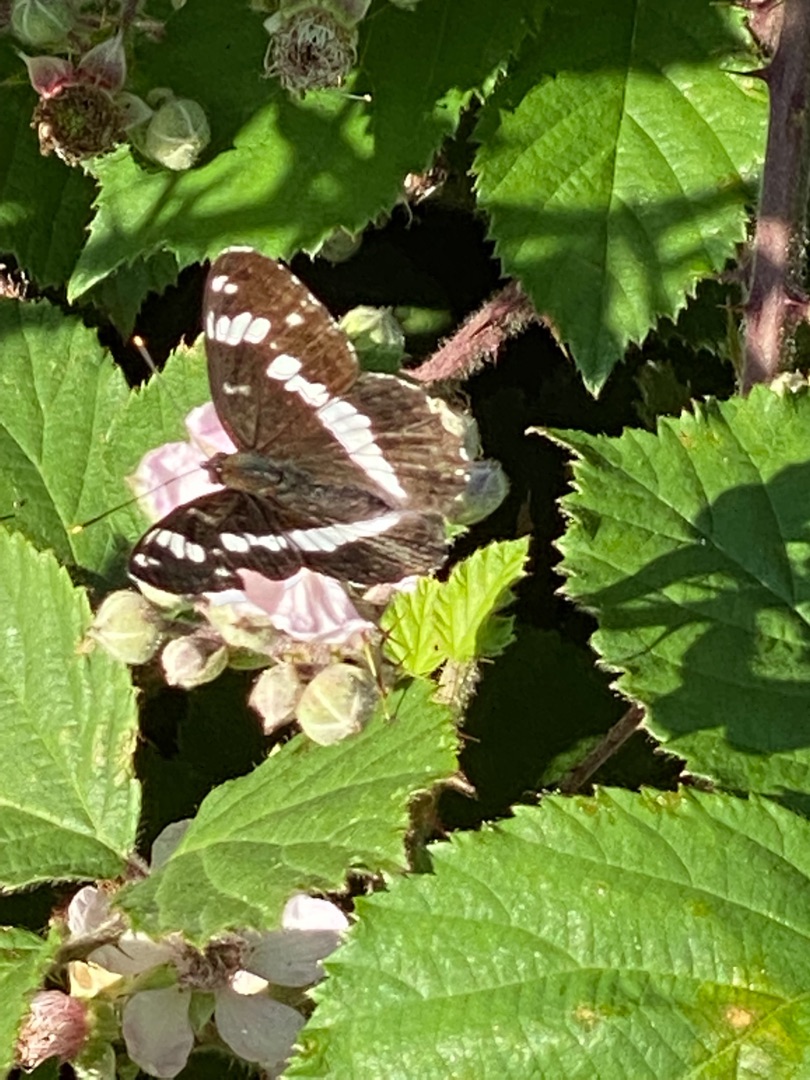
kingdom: Animalia
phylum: Arthropoda
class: Insecta
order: Lepidoptera
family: Nymphalidae
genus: Ladoga
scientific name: Ladoga camilla
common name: Hvid admiral
